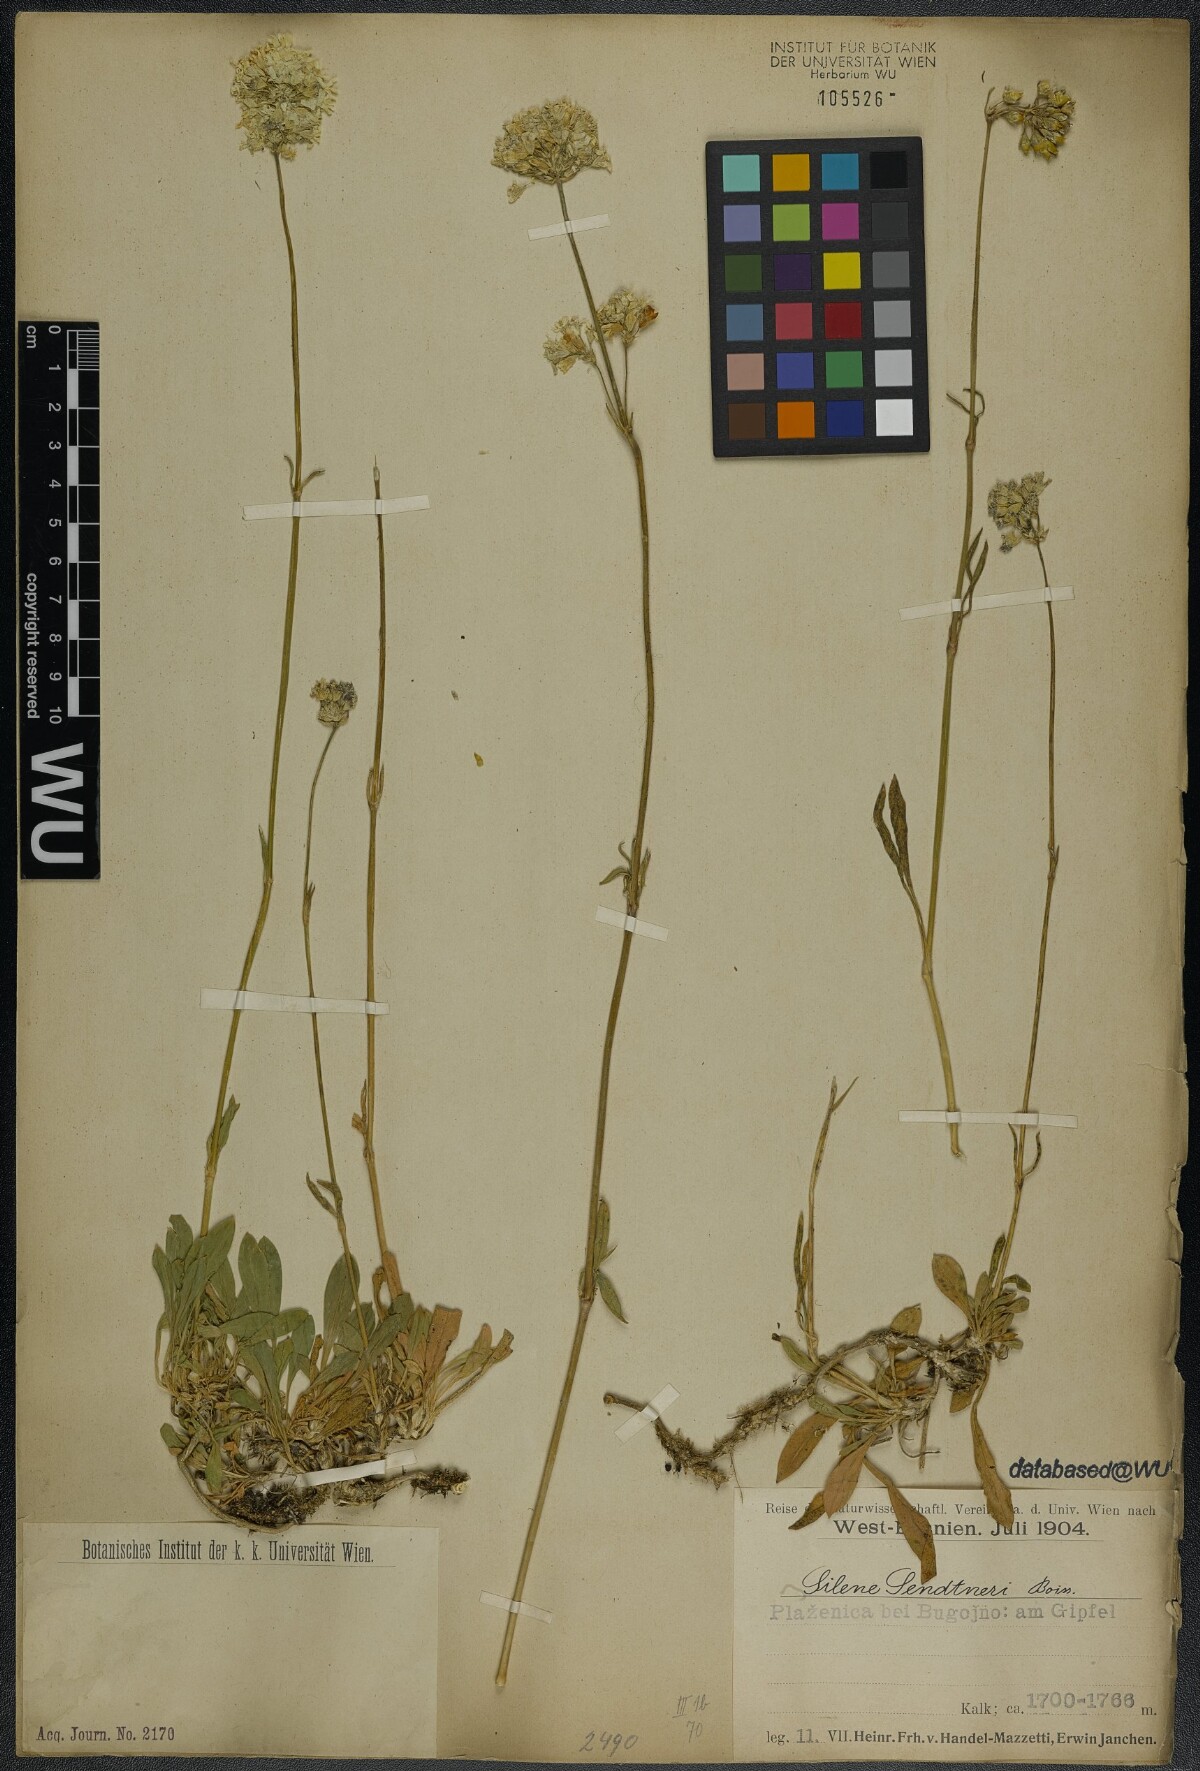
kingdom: Plantae
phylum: Tracheophyta
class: Magnoliopsida
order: Caryophyllales
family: Caryophyllaceae
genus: Silene
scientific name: Silene sendtneri
